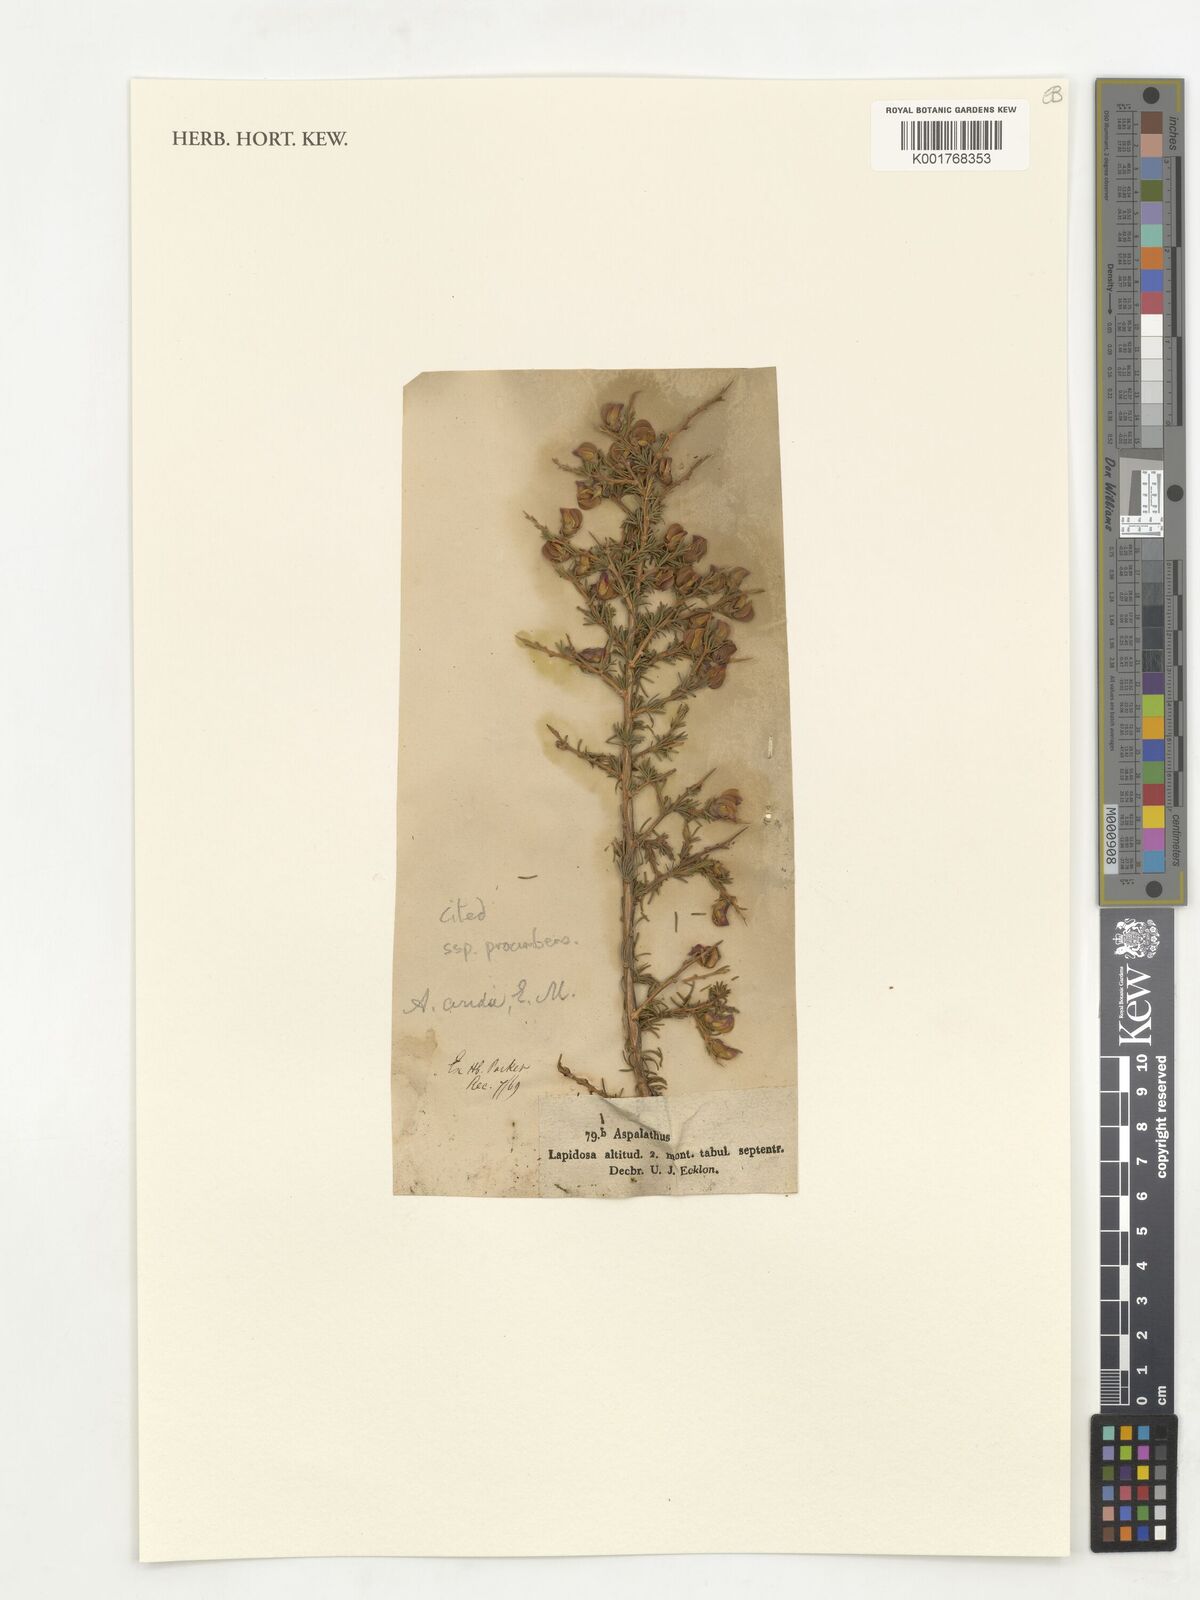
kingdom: Plantae
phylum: Tracheophyta
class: Magnoliopsida
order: Fabales
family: Fabaceae
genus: Aspalathus
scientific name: Aspalathus arida
